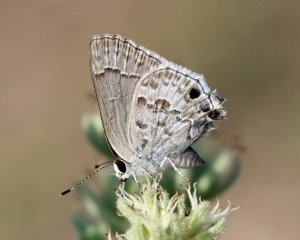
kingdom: Animalia
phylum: Arthropoda
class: Insecta
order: Lepidoptera
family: Lycaenidae
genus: Strymon
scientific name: Strymon alea
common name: Lacey's Scrub-Hairstreak
